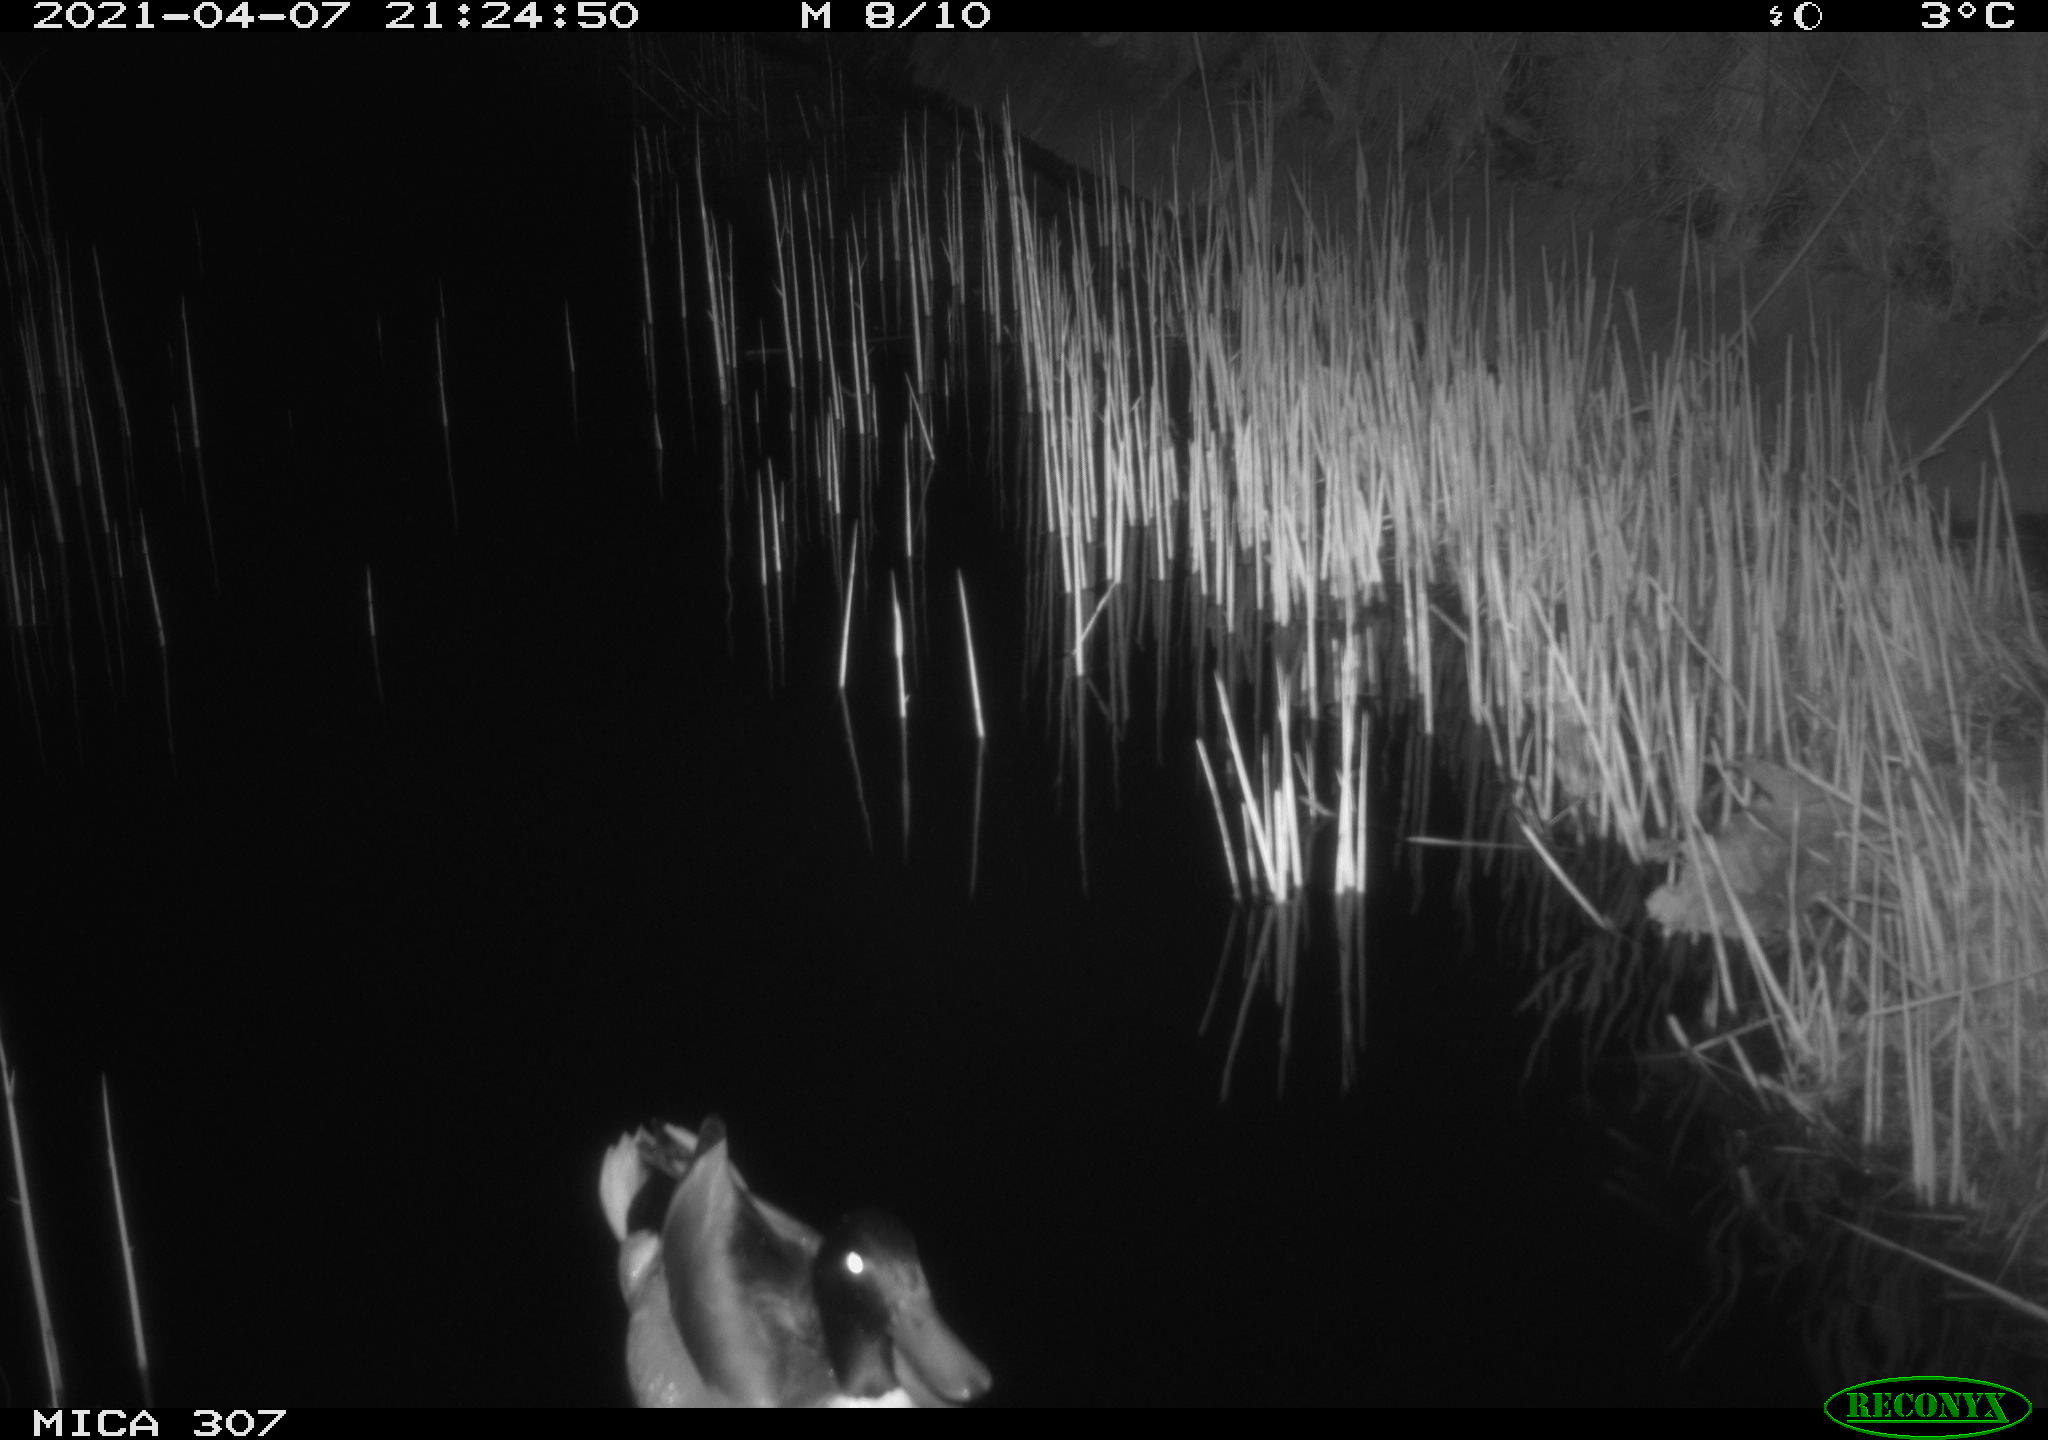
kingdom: Animalia
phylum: Chordata
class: Aves
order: Anseriformes
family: Anatidae
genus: Anas
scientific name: Anas platyrhynchos
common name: Mallard
